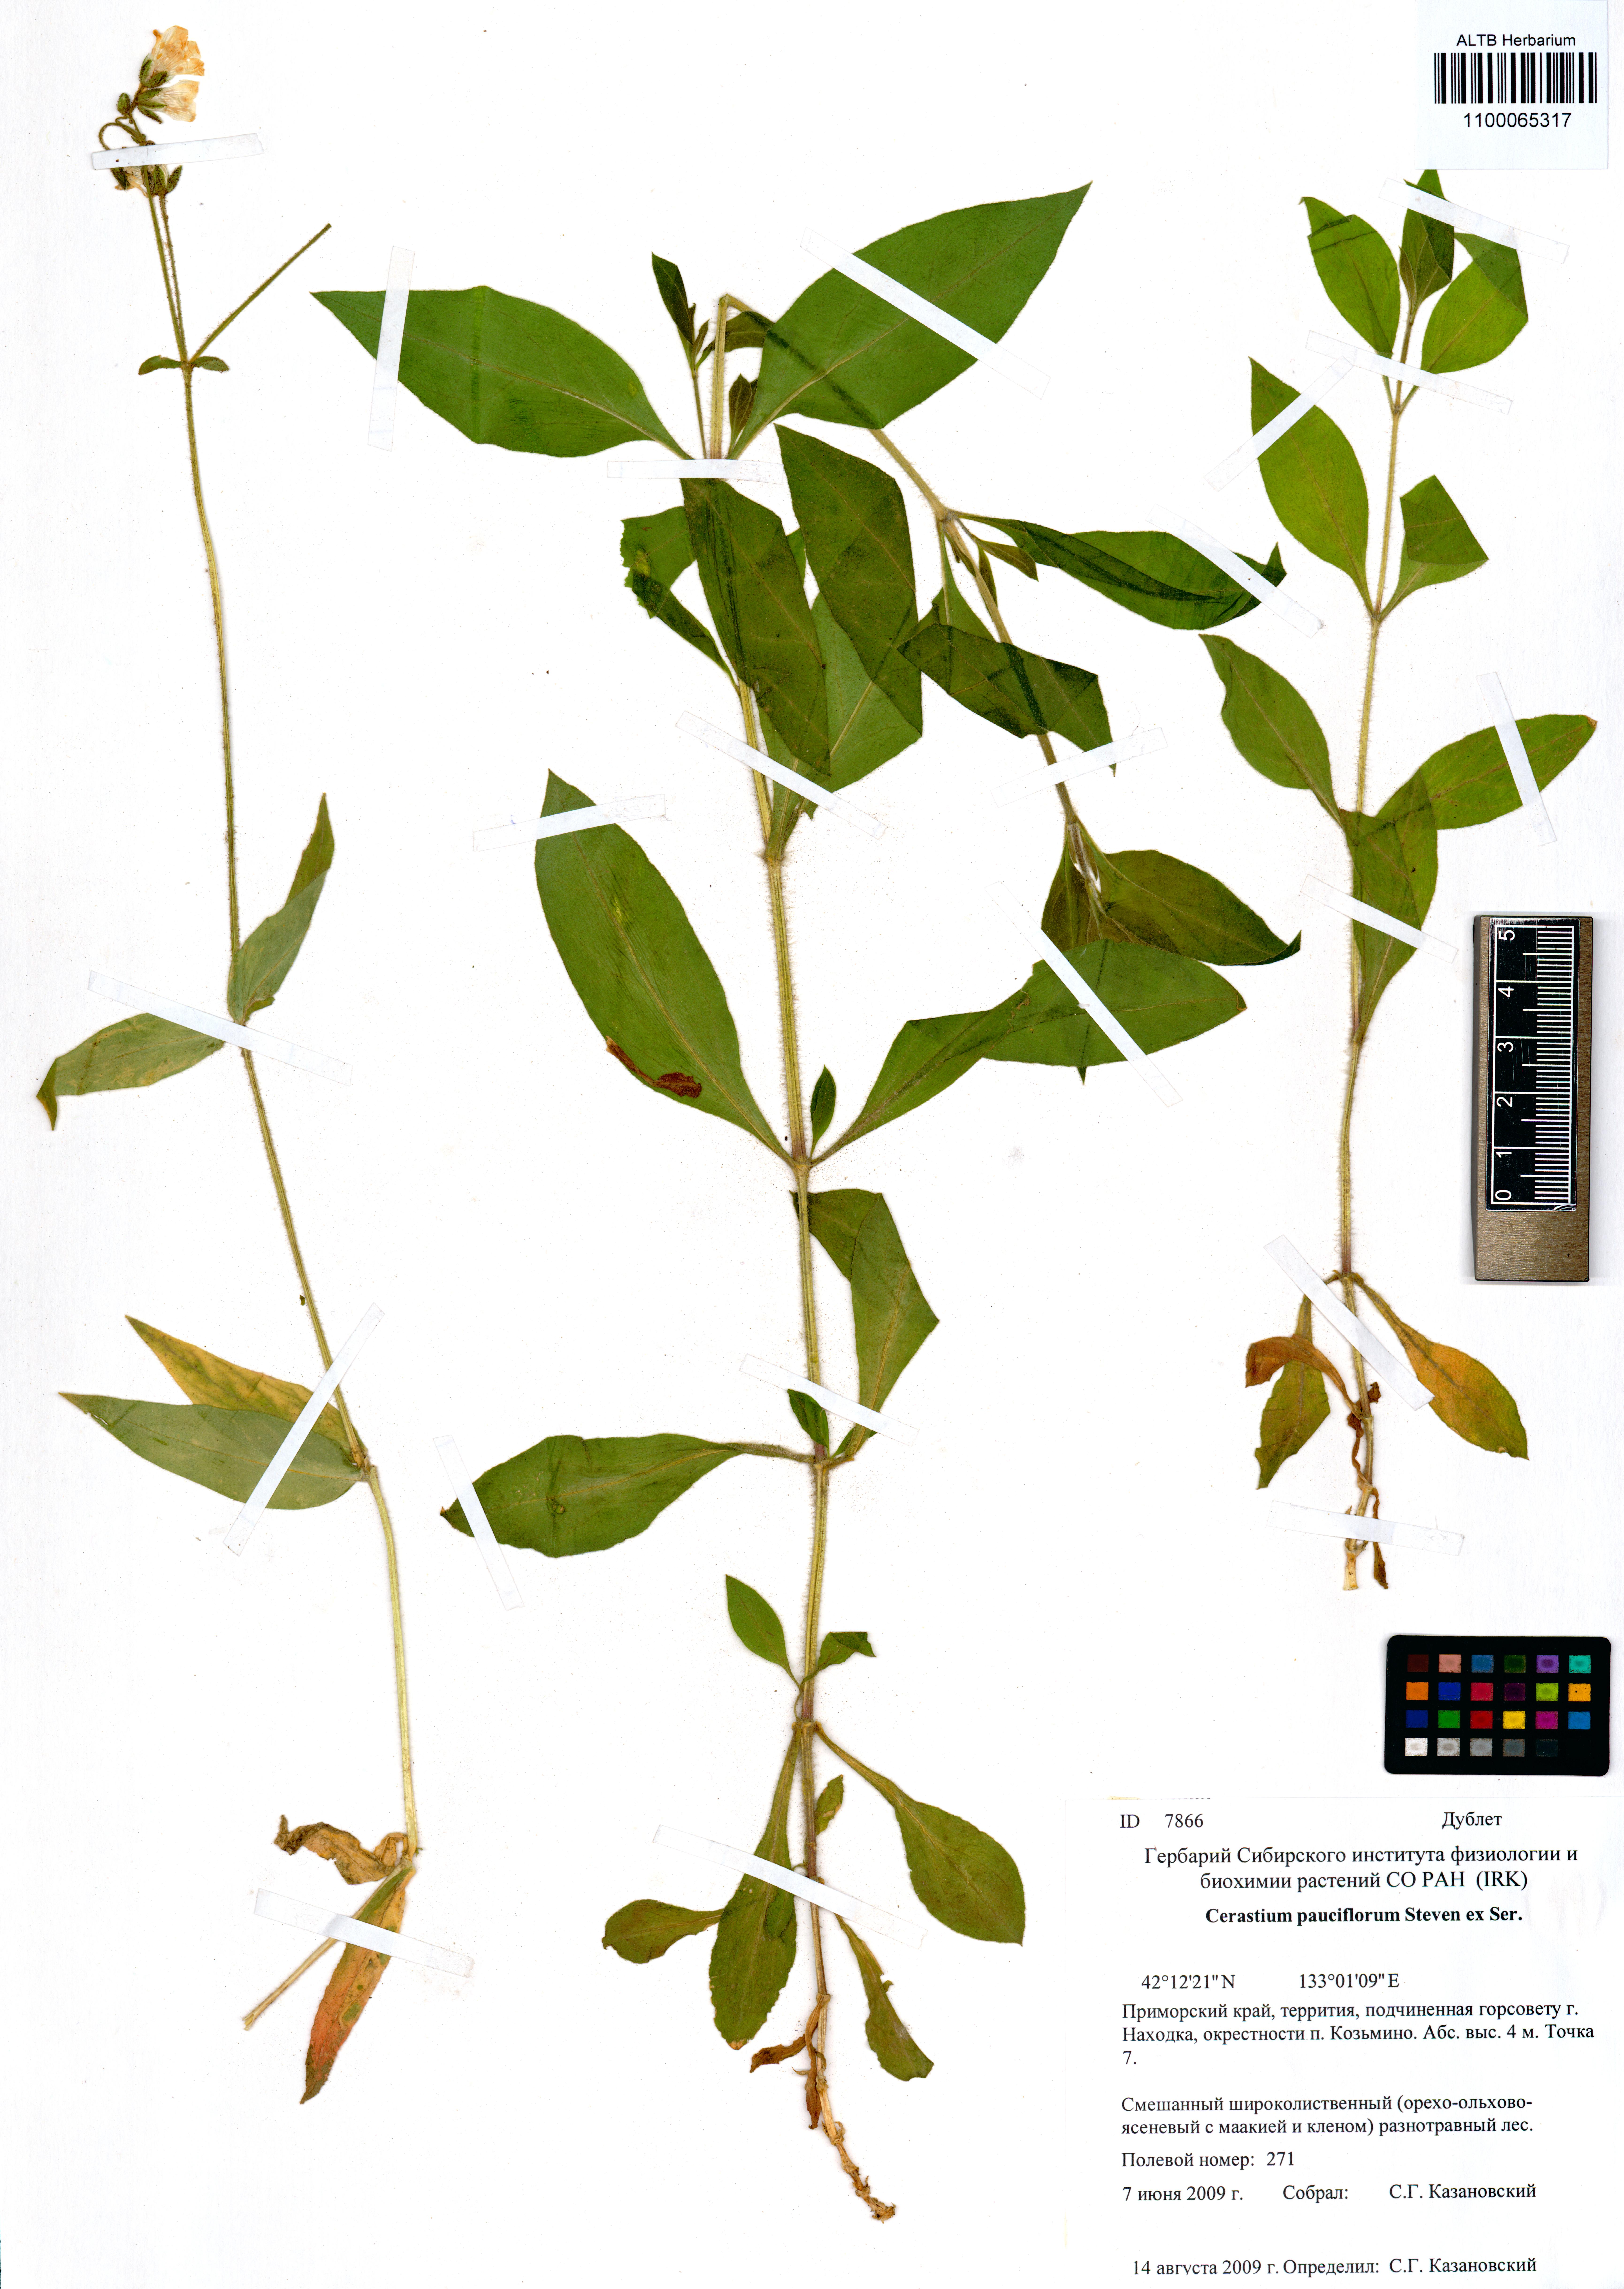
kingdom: Plantae
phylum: Tracheophyta
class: Magnoliopsida
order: Caryophyllales
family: Caryophyllaceae
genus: Cerastium
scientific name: Cerastium pauciflorum
